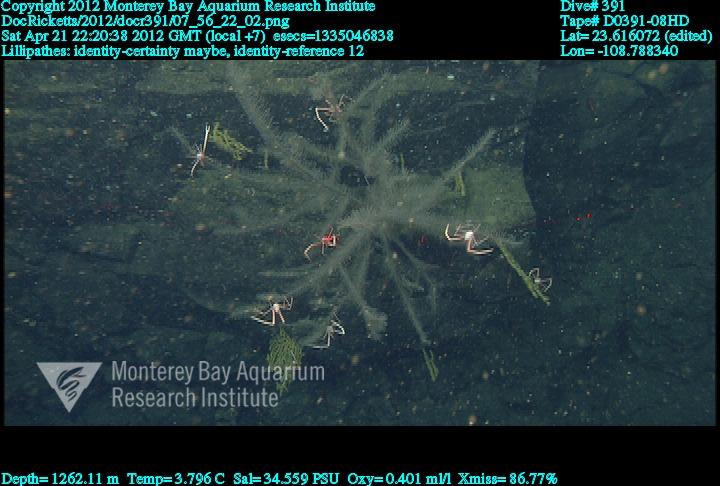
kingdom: Animalia
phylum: Cnidaria
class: Anthozoa
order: Antipatharia
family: Schizopathidae
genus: Lillipathes
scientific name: Lillipathes
